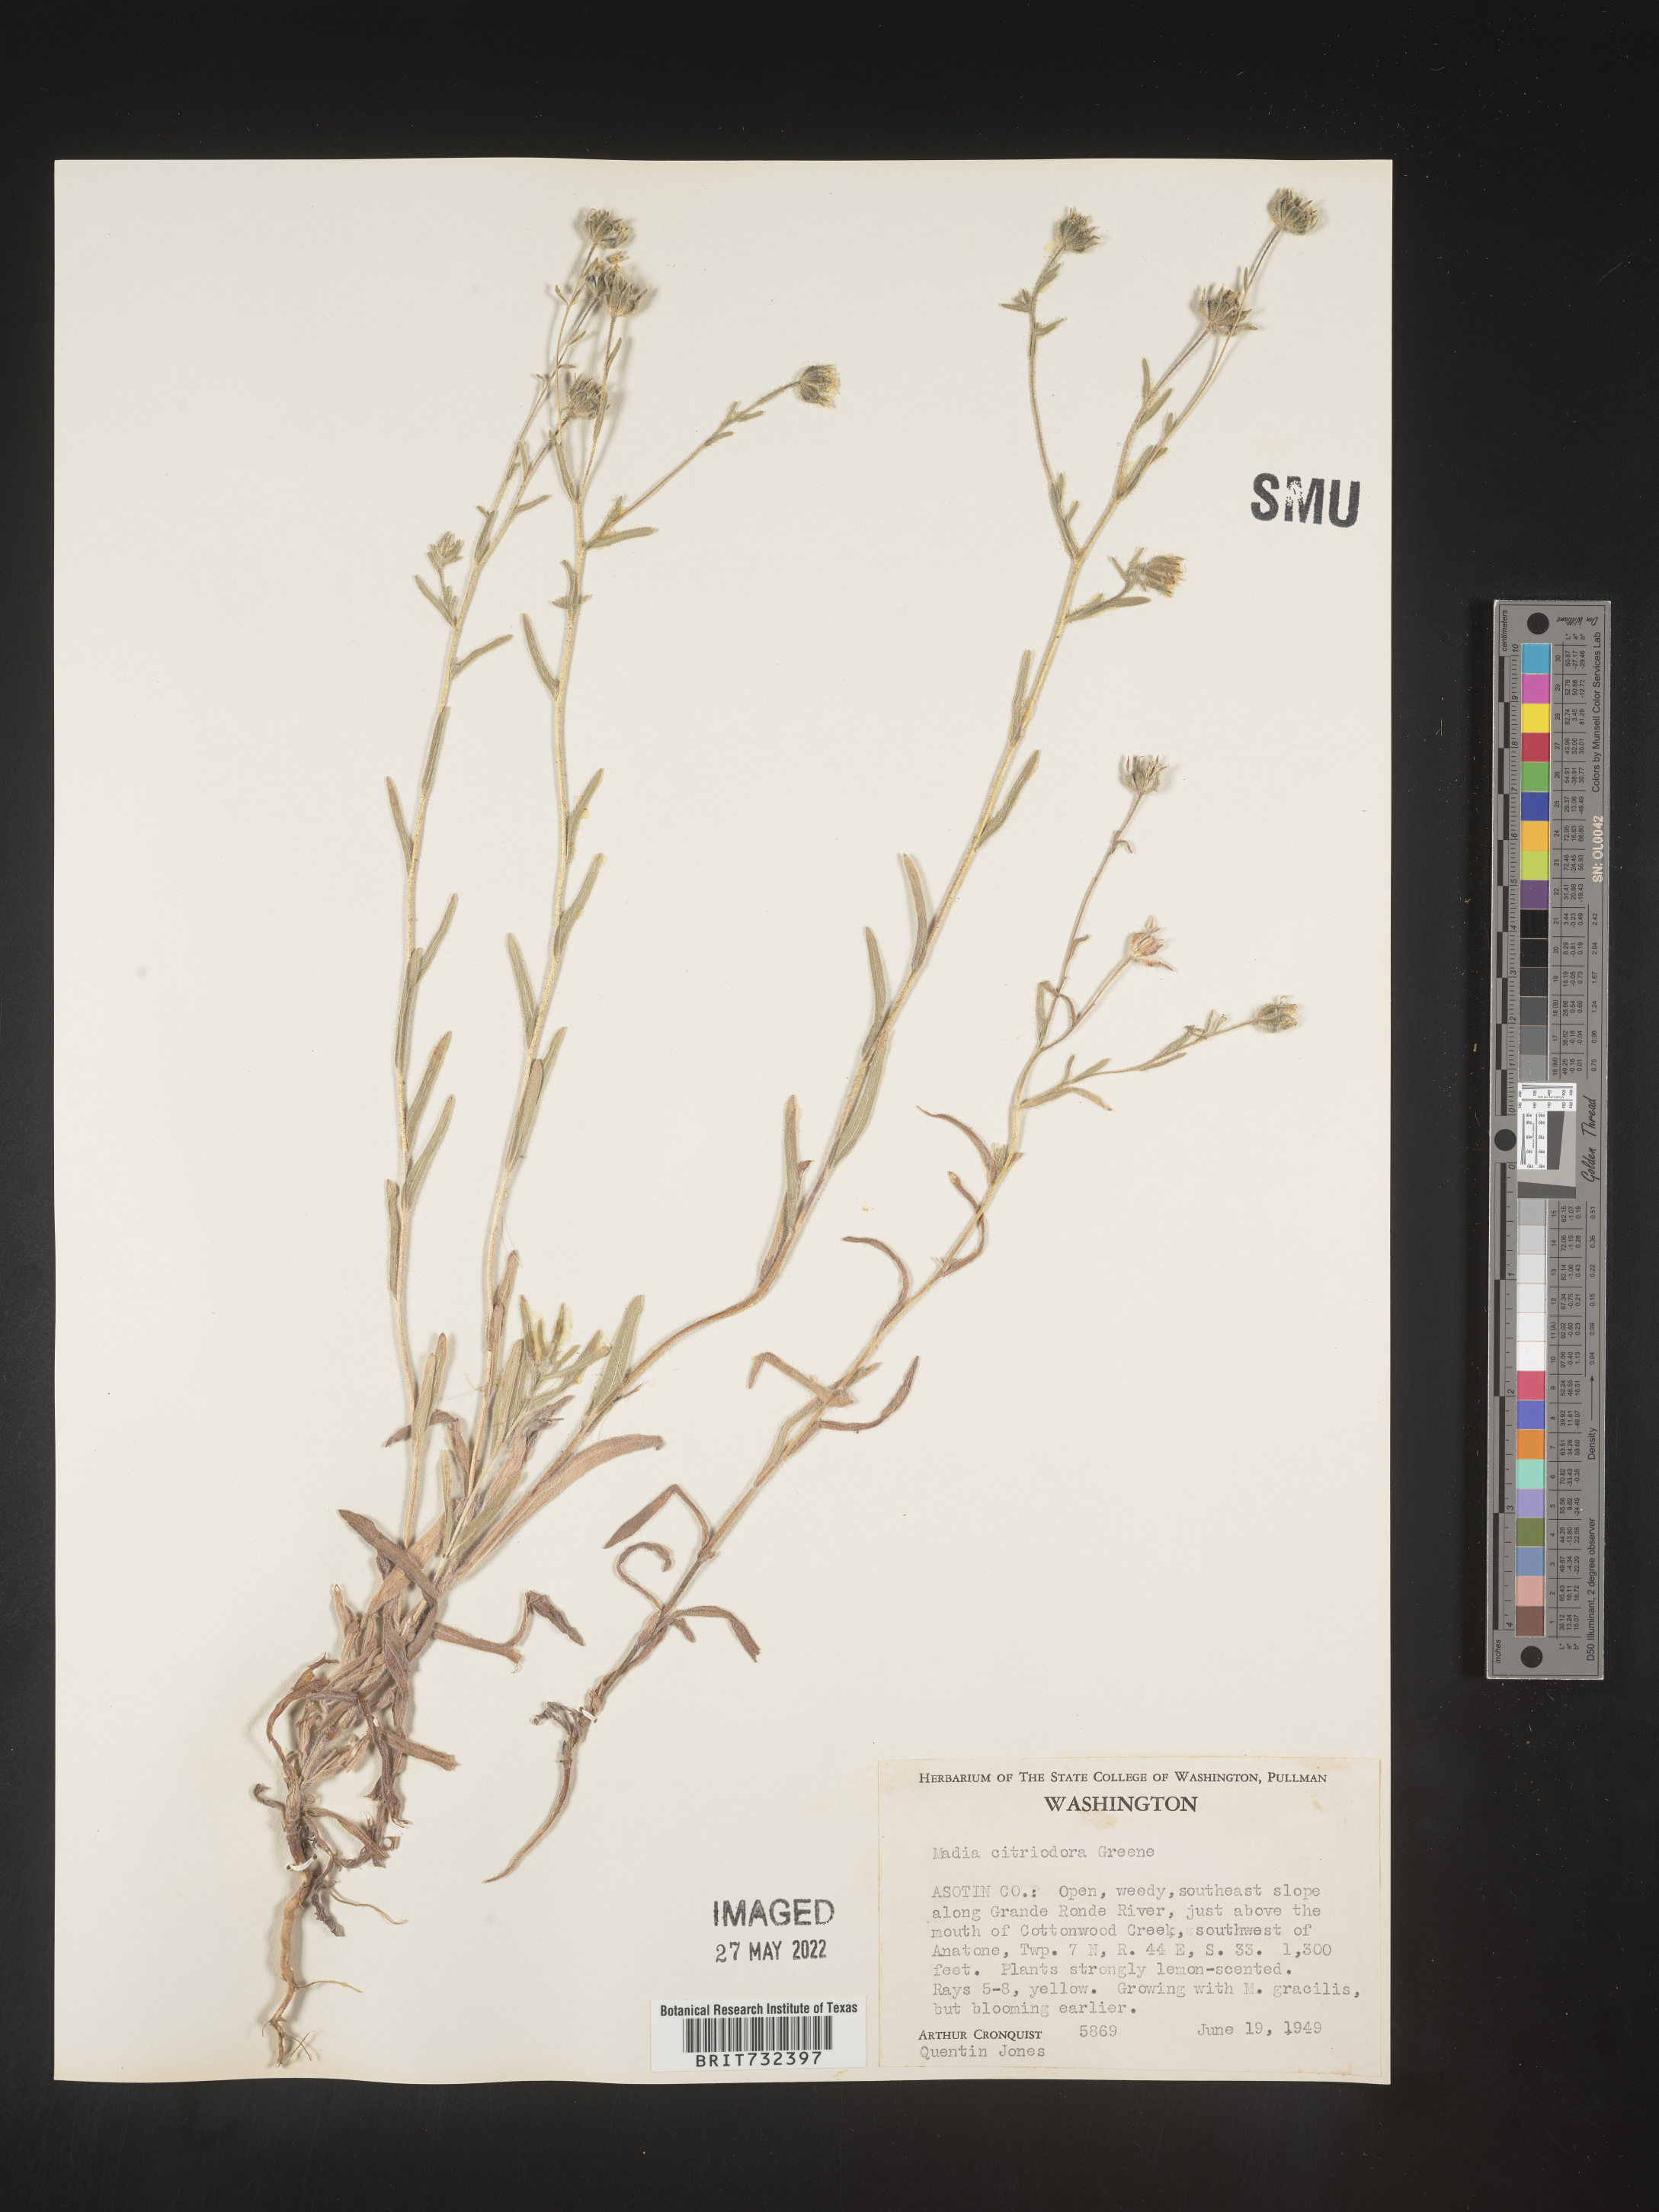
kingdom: Plantae
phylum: Tracheophyta
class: Magnoliopsida
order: Asterales
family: Asteraceae
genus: Madia
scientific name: Madia citriodora
